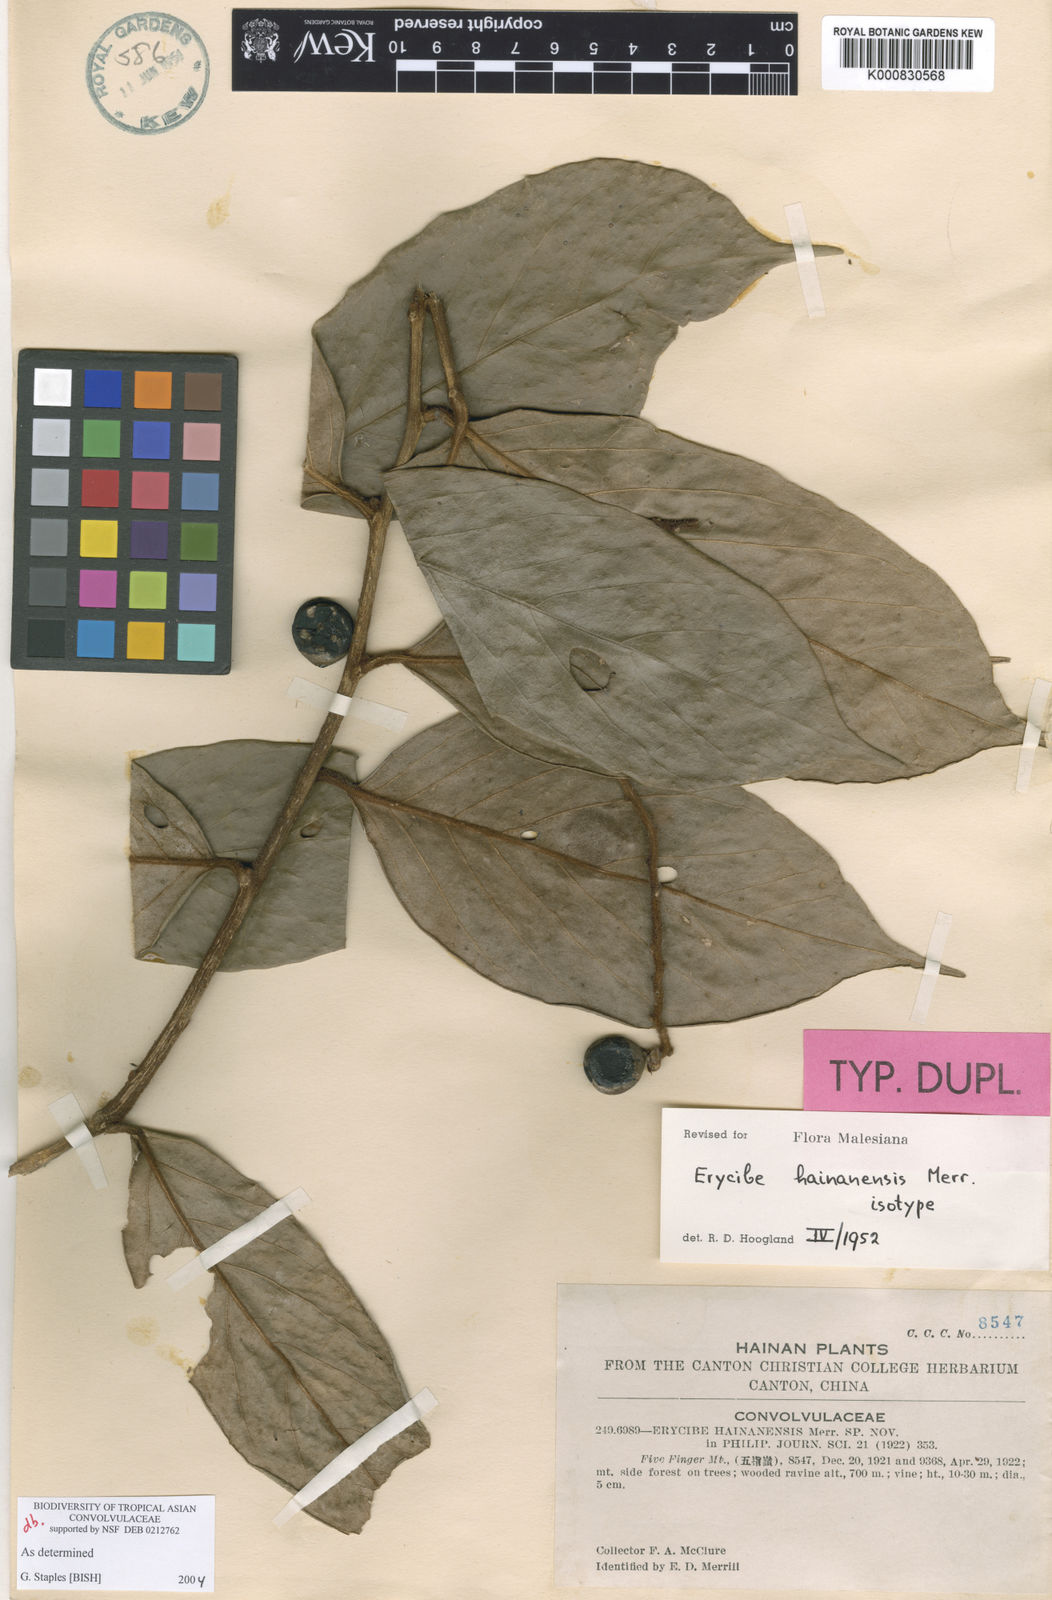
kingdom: Plantae
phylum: Tracheophyta
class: Magnoliopsida
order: Solanales
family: Convolvulaceae
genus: Erycibe
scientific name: Erycibe hainanensis
